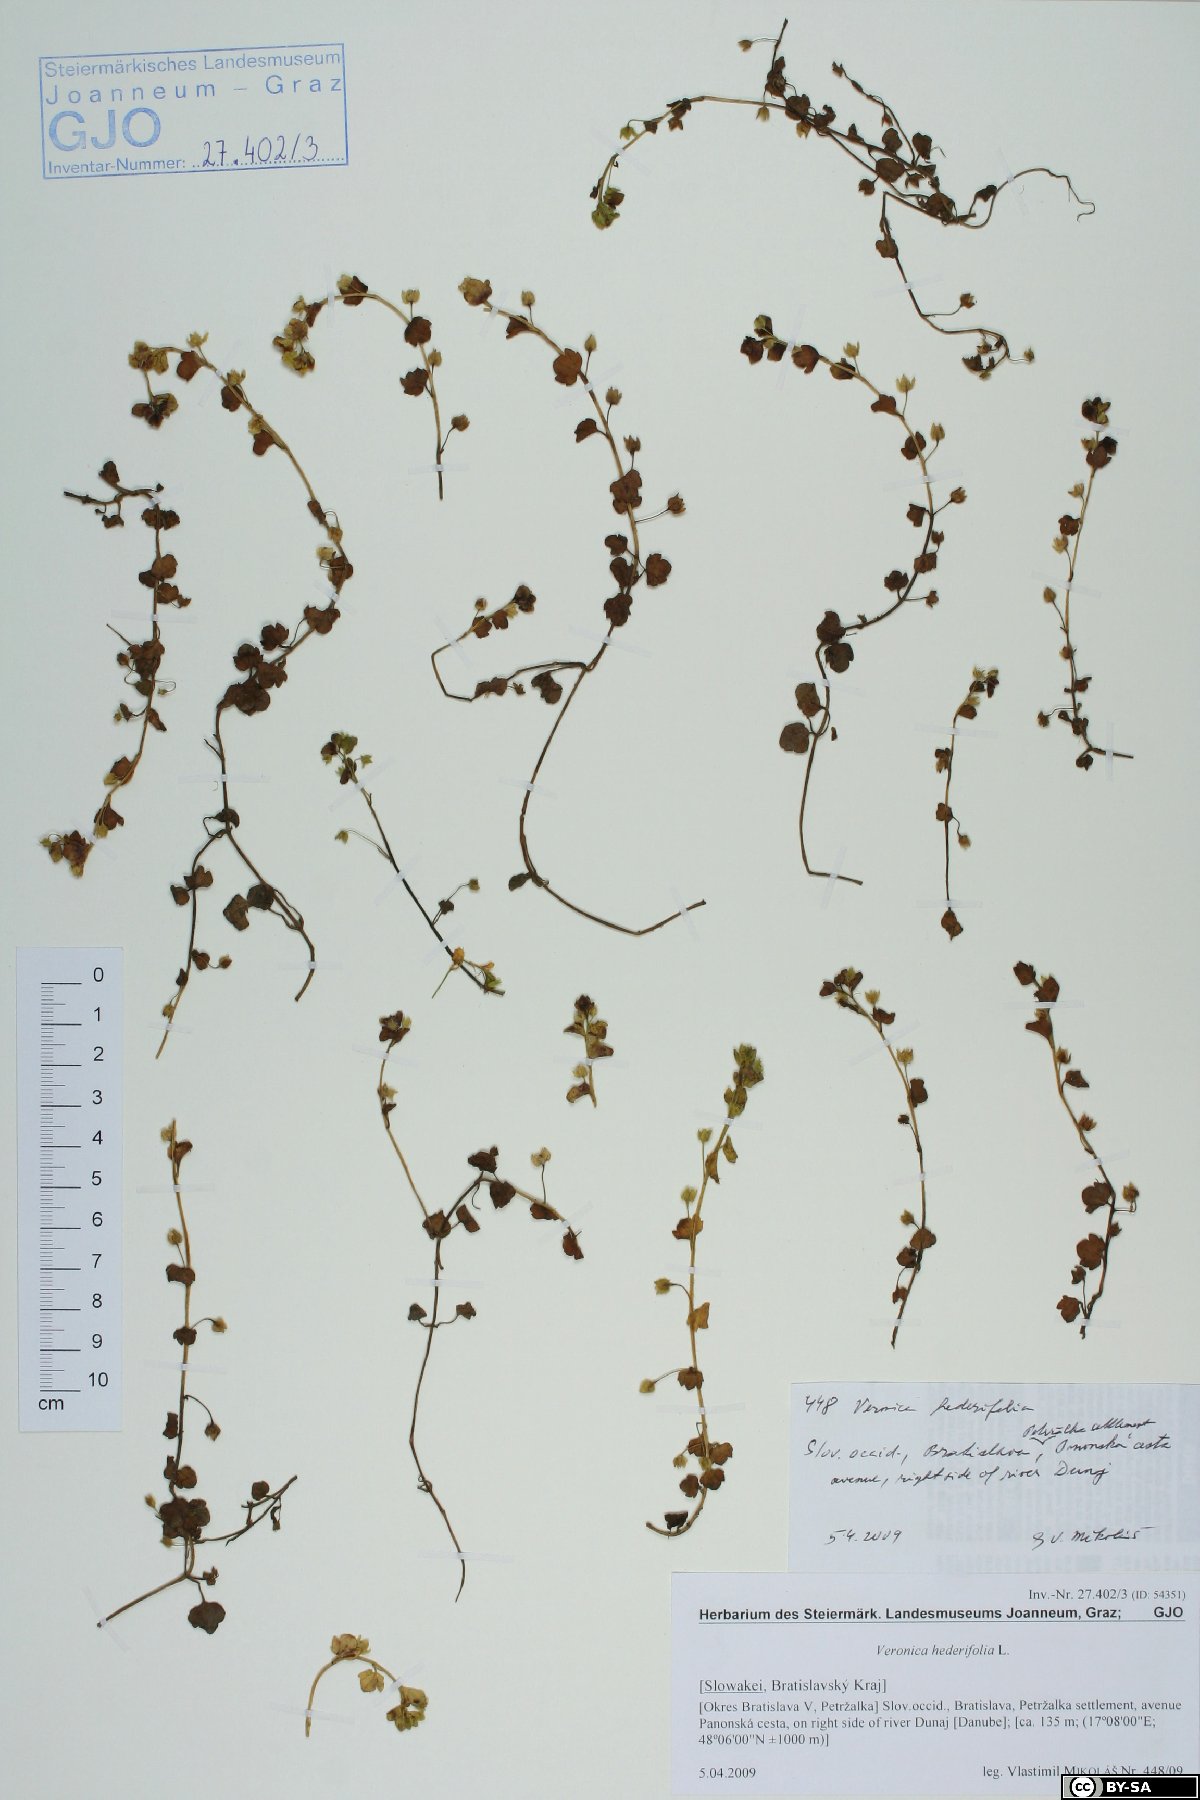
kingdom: Plantae
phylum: Tracheophyta
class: Magnoliopsida
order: Lamiales
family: Plantaginaceae
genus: Veronica
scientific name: Veronica hederifolia
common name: Ivy-leaved speedwell
